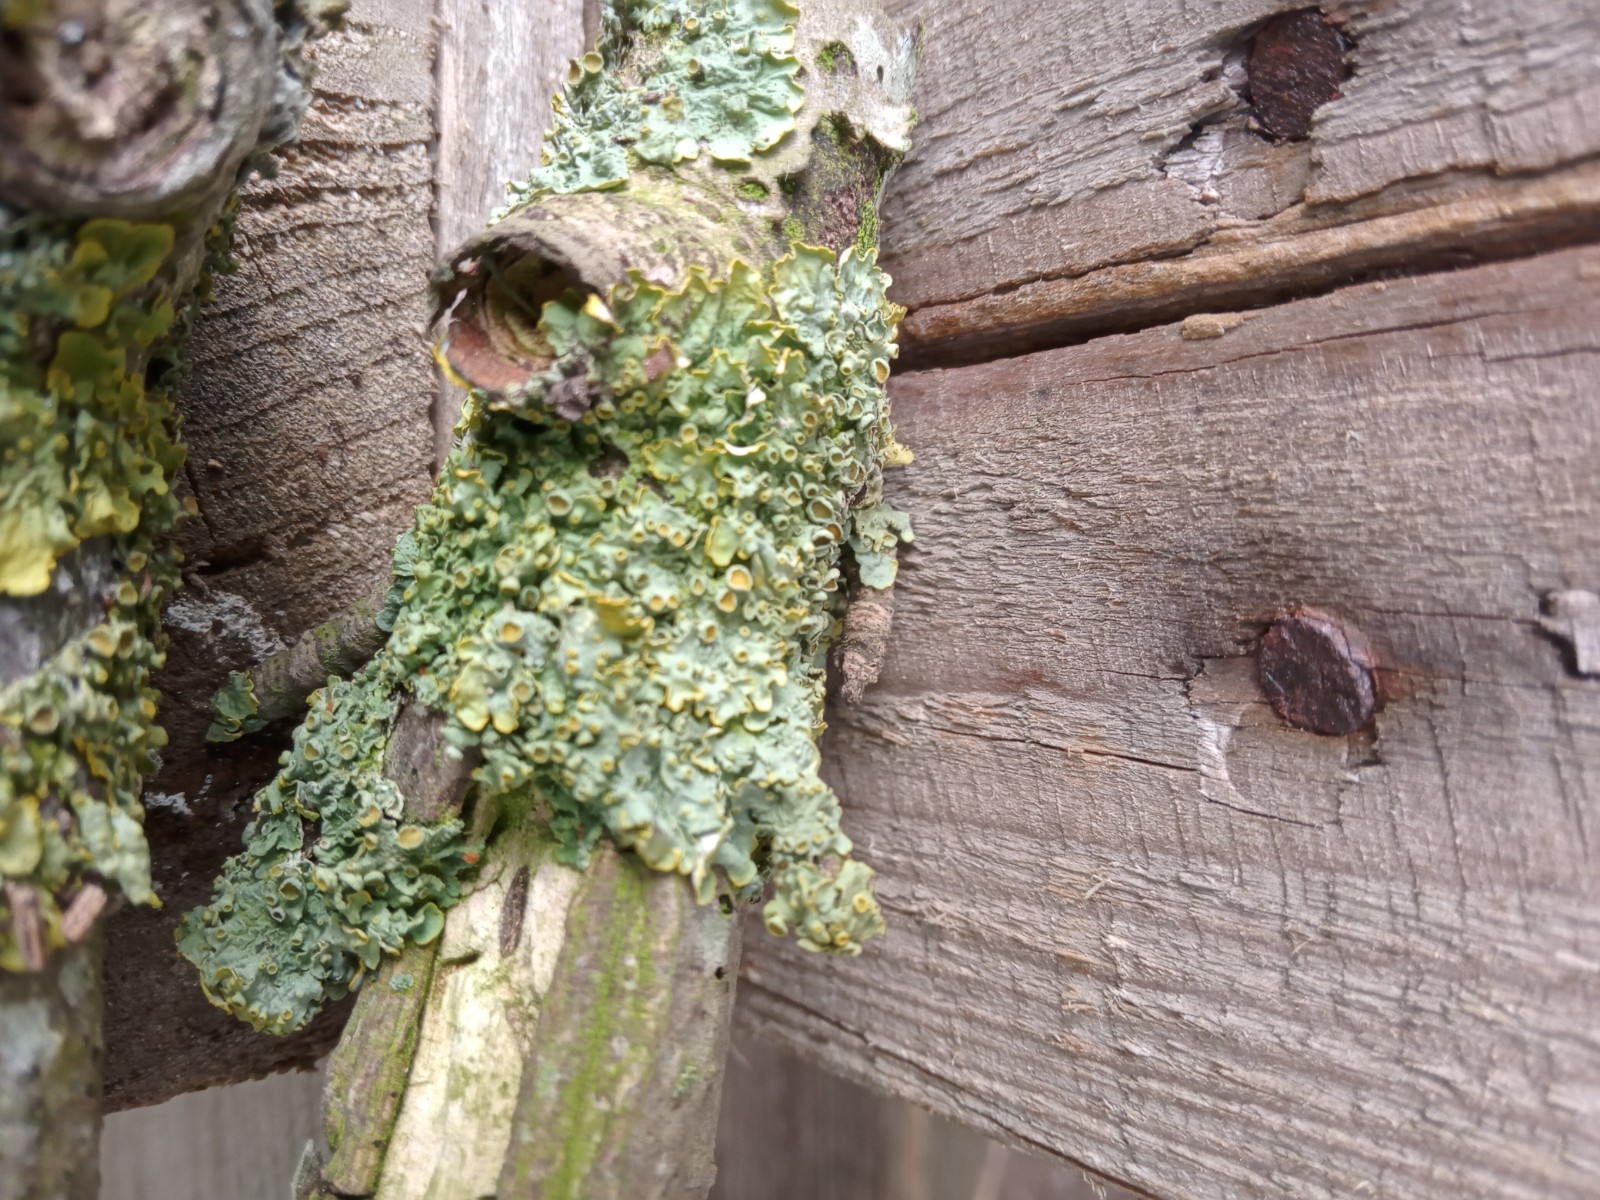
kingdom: Fungi
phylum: Ascomycota
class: Lecanoromycetes
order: Teloschistales
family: Teloschistaceae
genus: Xanthoria
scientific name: Xanthoria parietina
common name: almindelig væggelav
